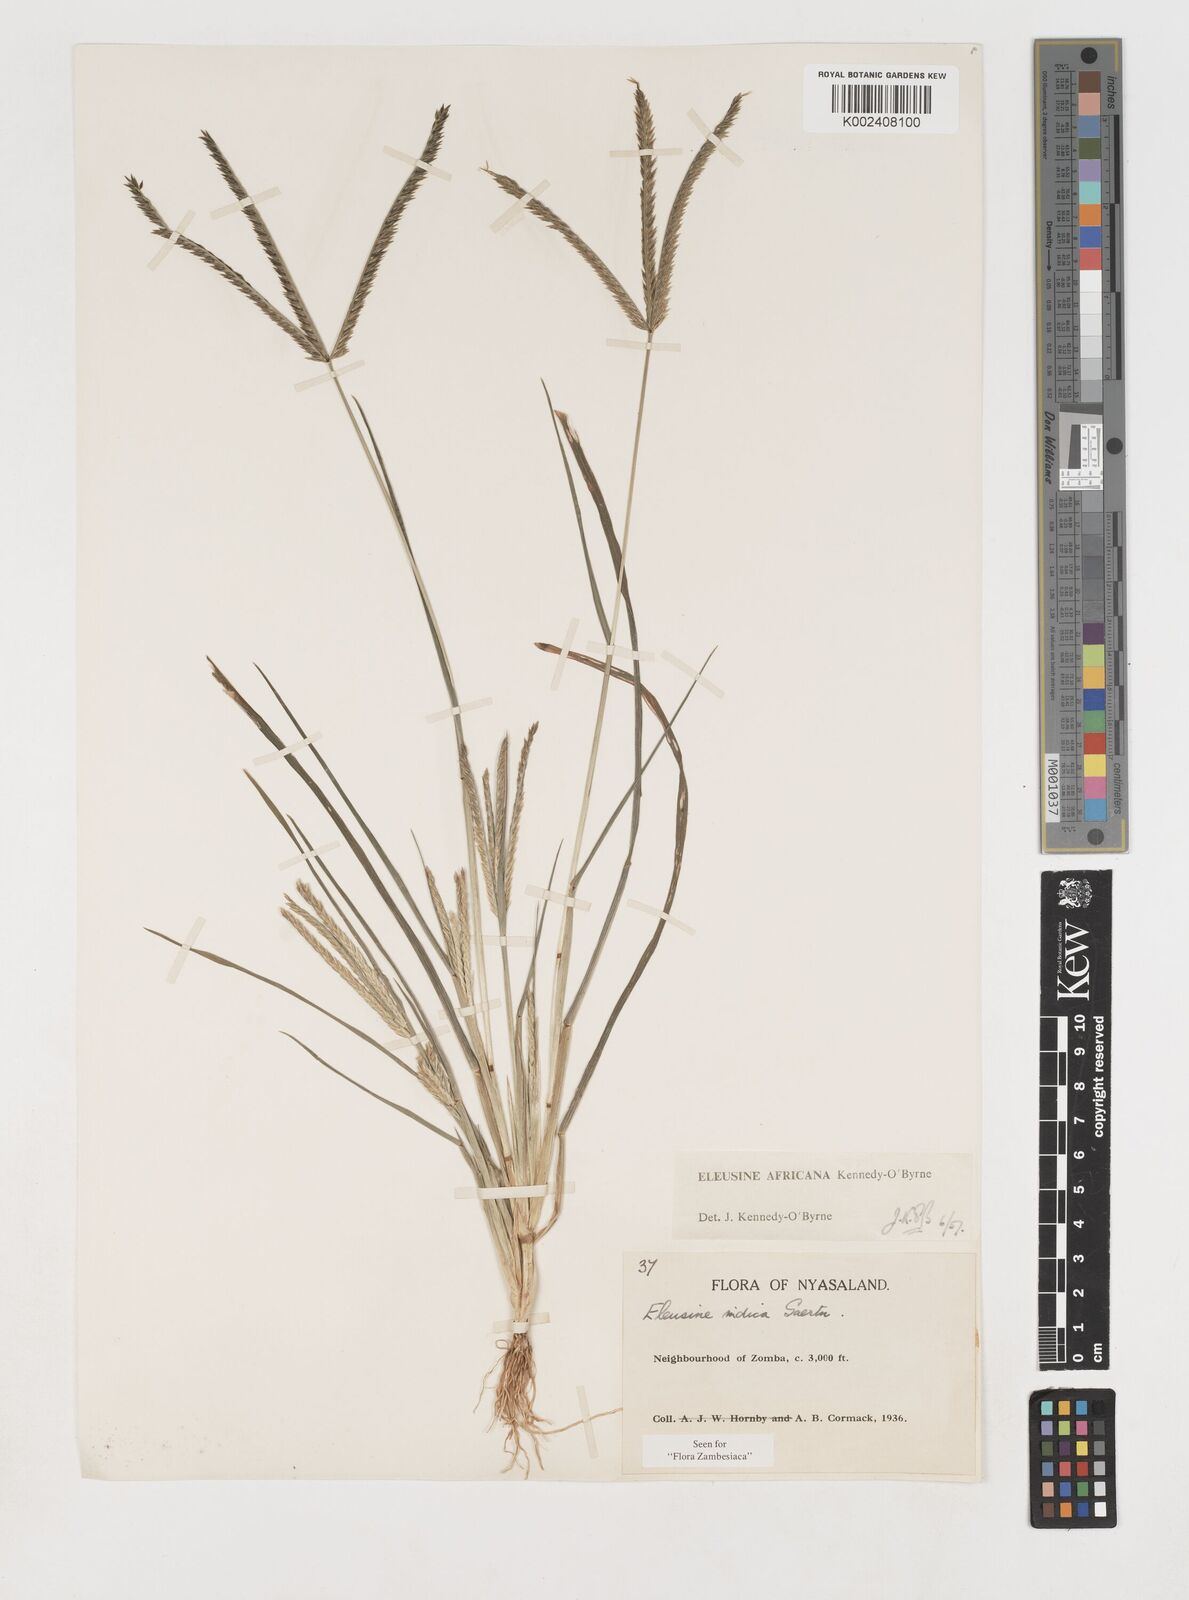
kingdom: Plantae
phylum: Tracheophyta
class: Liliopsida
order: Poales
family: Poaceae
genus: Eleusine
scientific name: Eleusine africana
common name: Wild african finger millet
